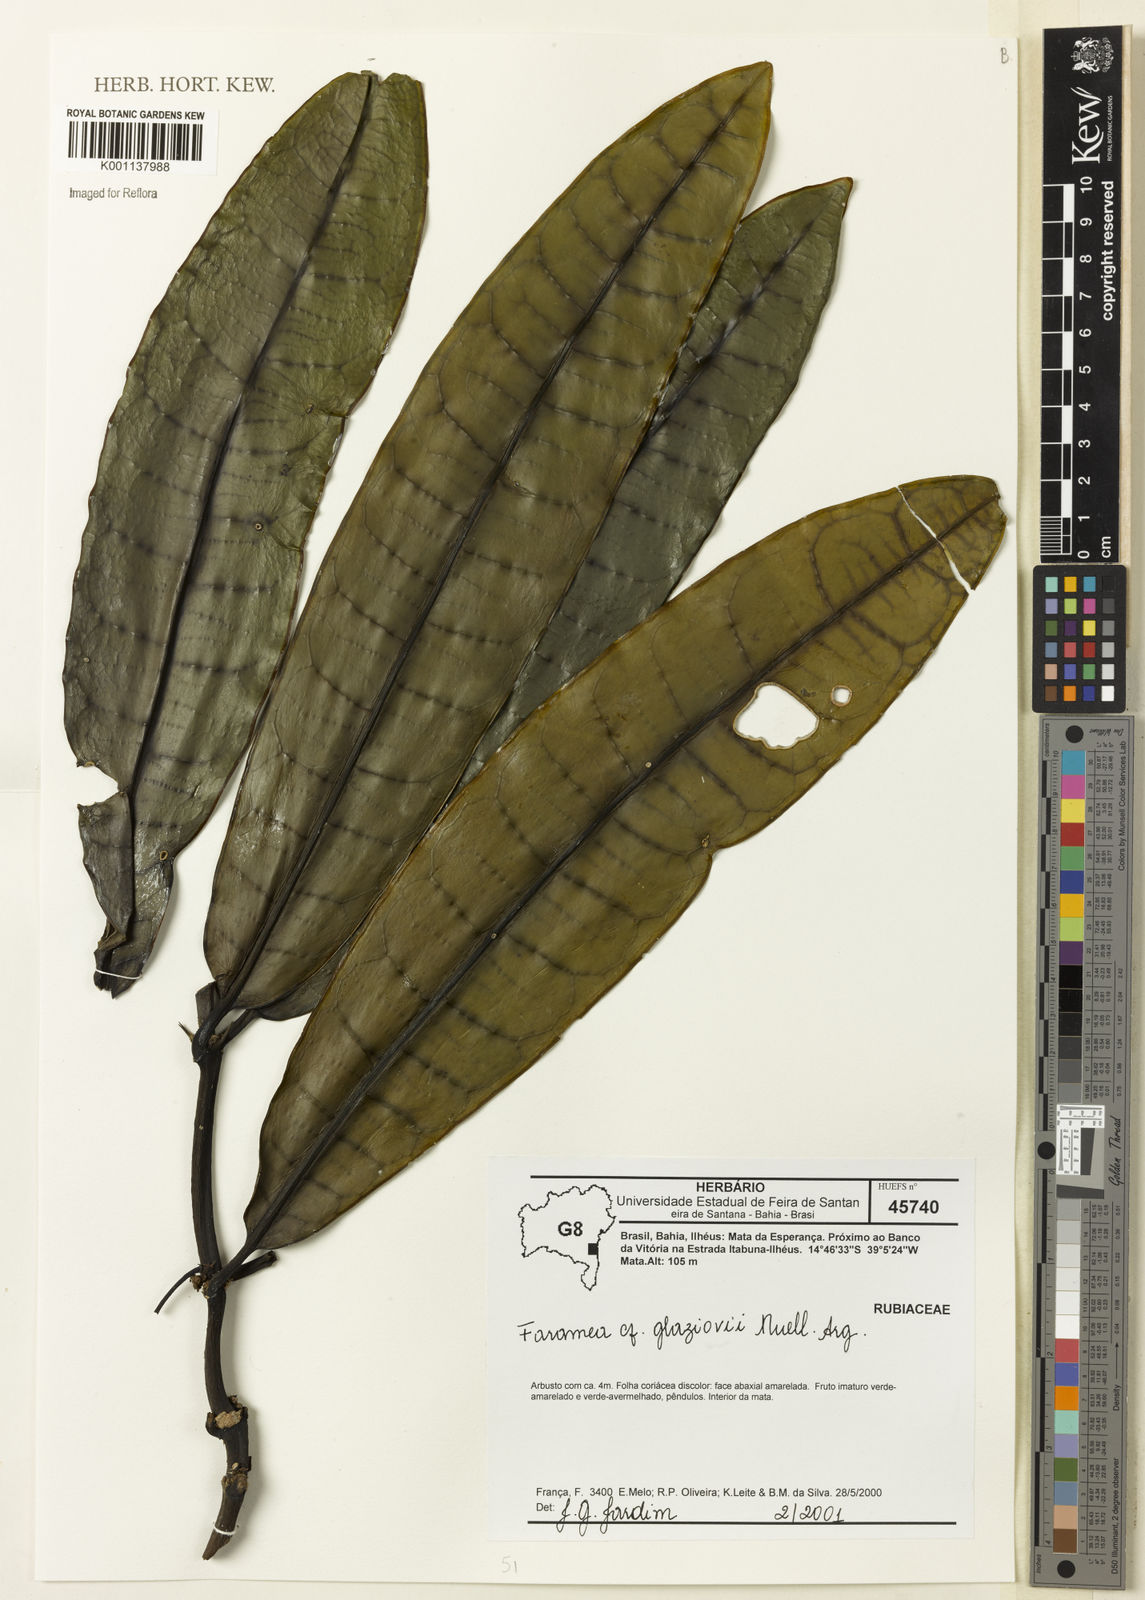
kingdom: Plantae
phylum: Tracheophyta
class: Magnoliopsida
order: Gentianales
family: Rubiaceae
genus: Faramea
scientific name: Faramea
